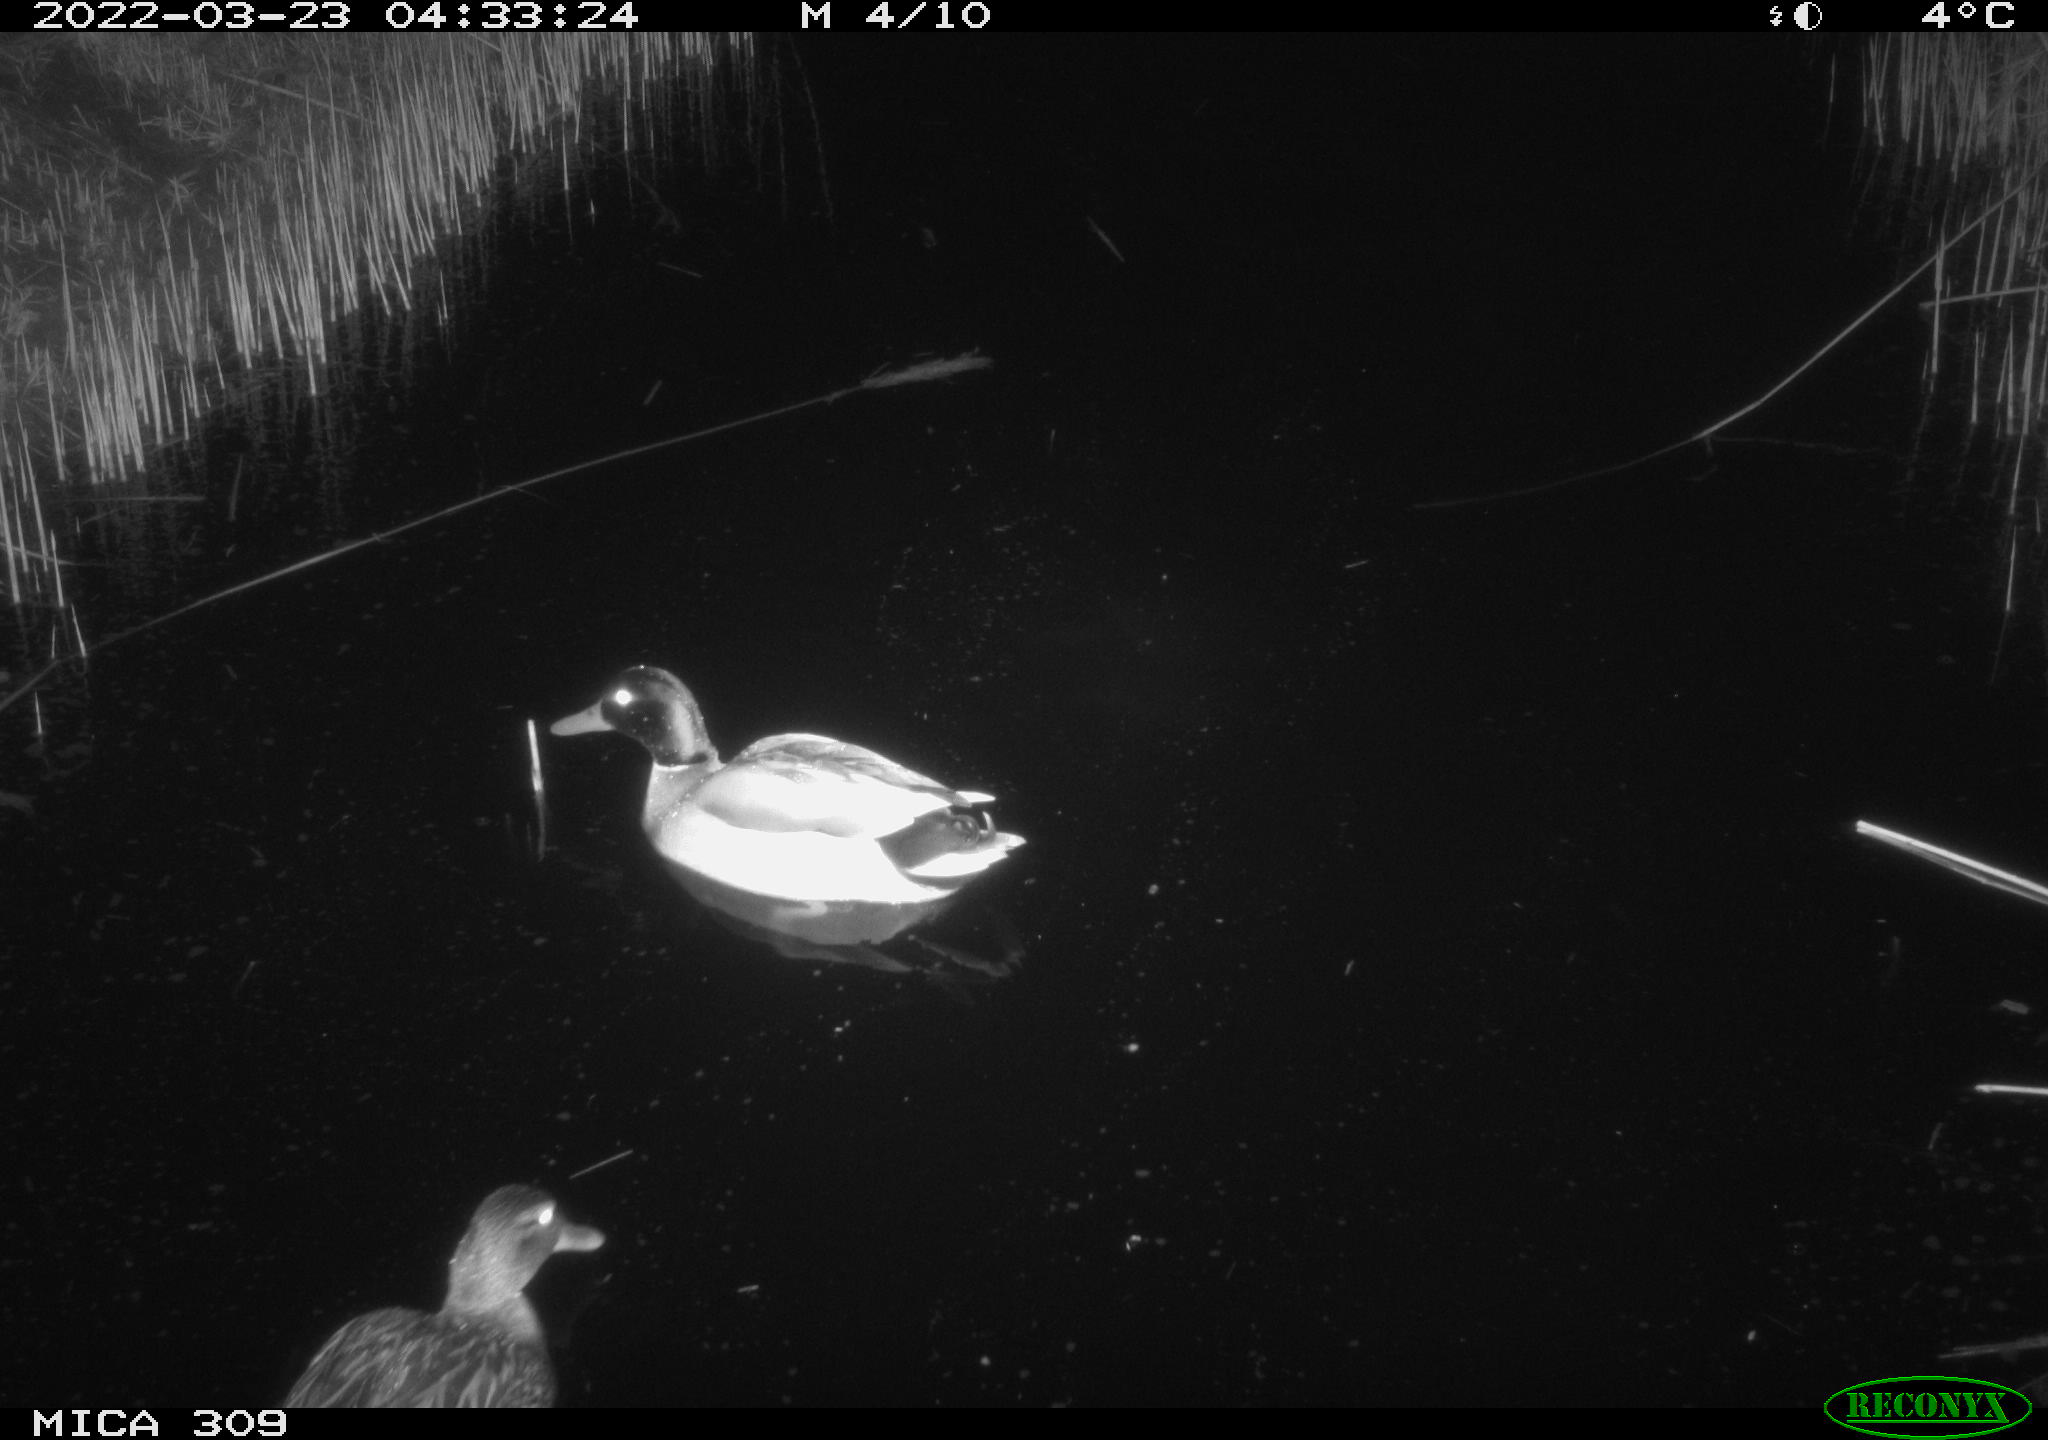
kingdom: Animalia
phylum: Chordata
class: Aves
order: Gruiformes
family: Rallidae
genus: Fulica
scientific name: Fulica atra
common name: Eurasian coot
